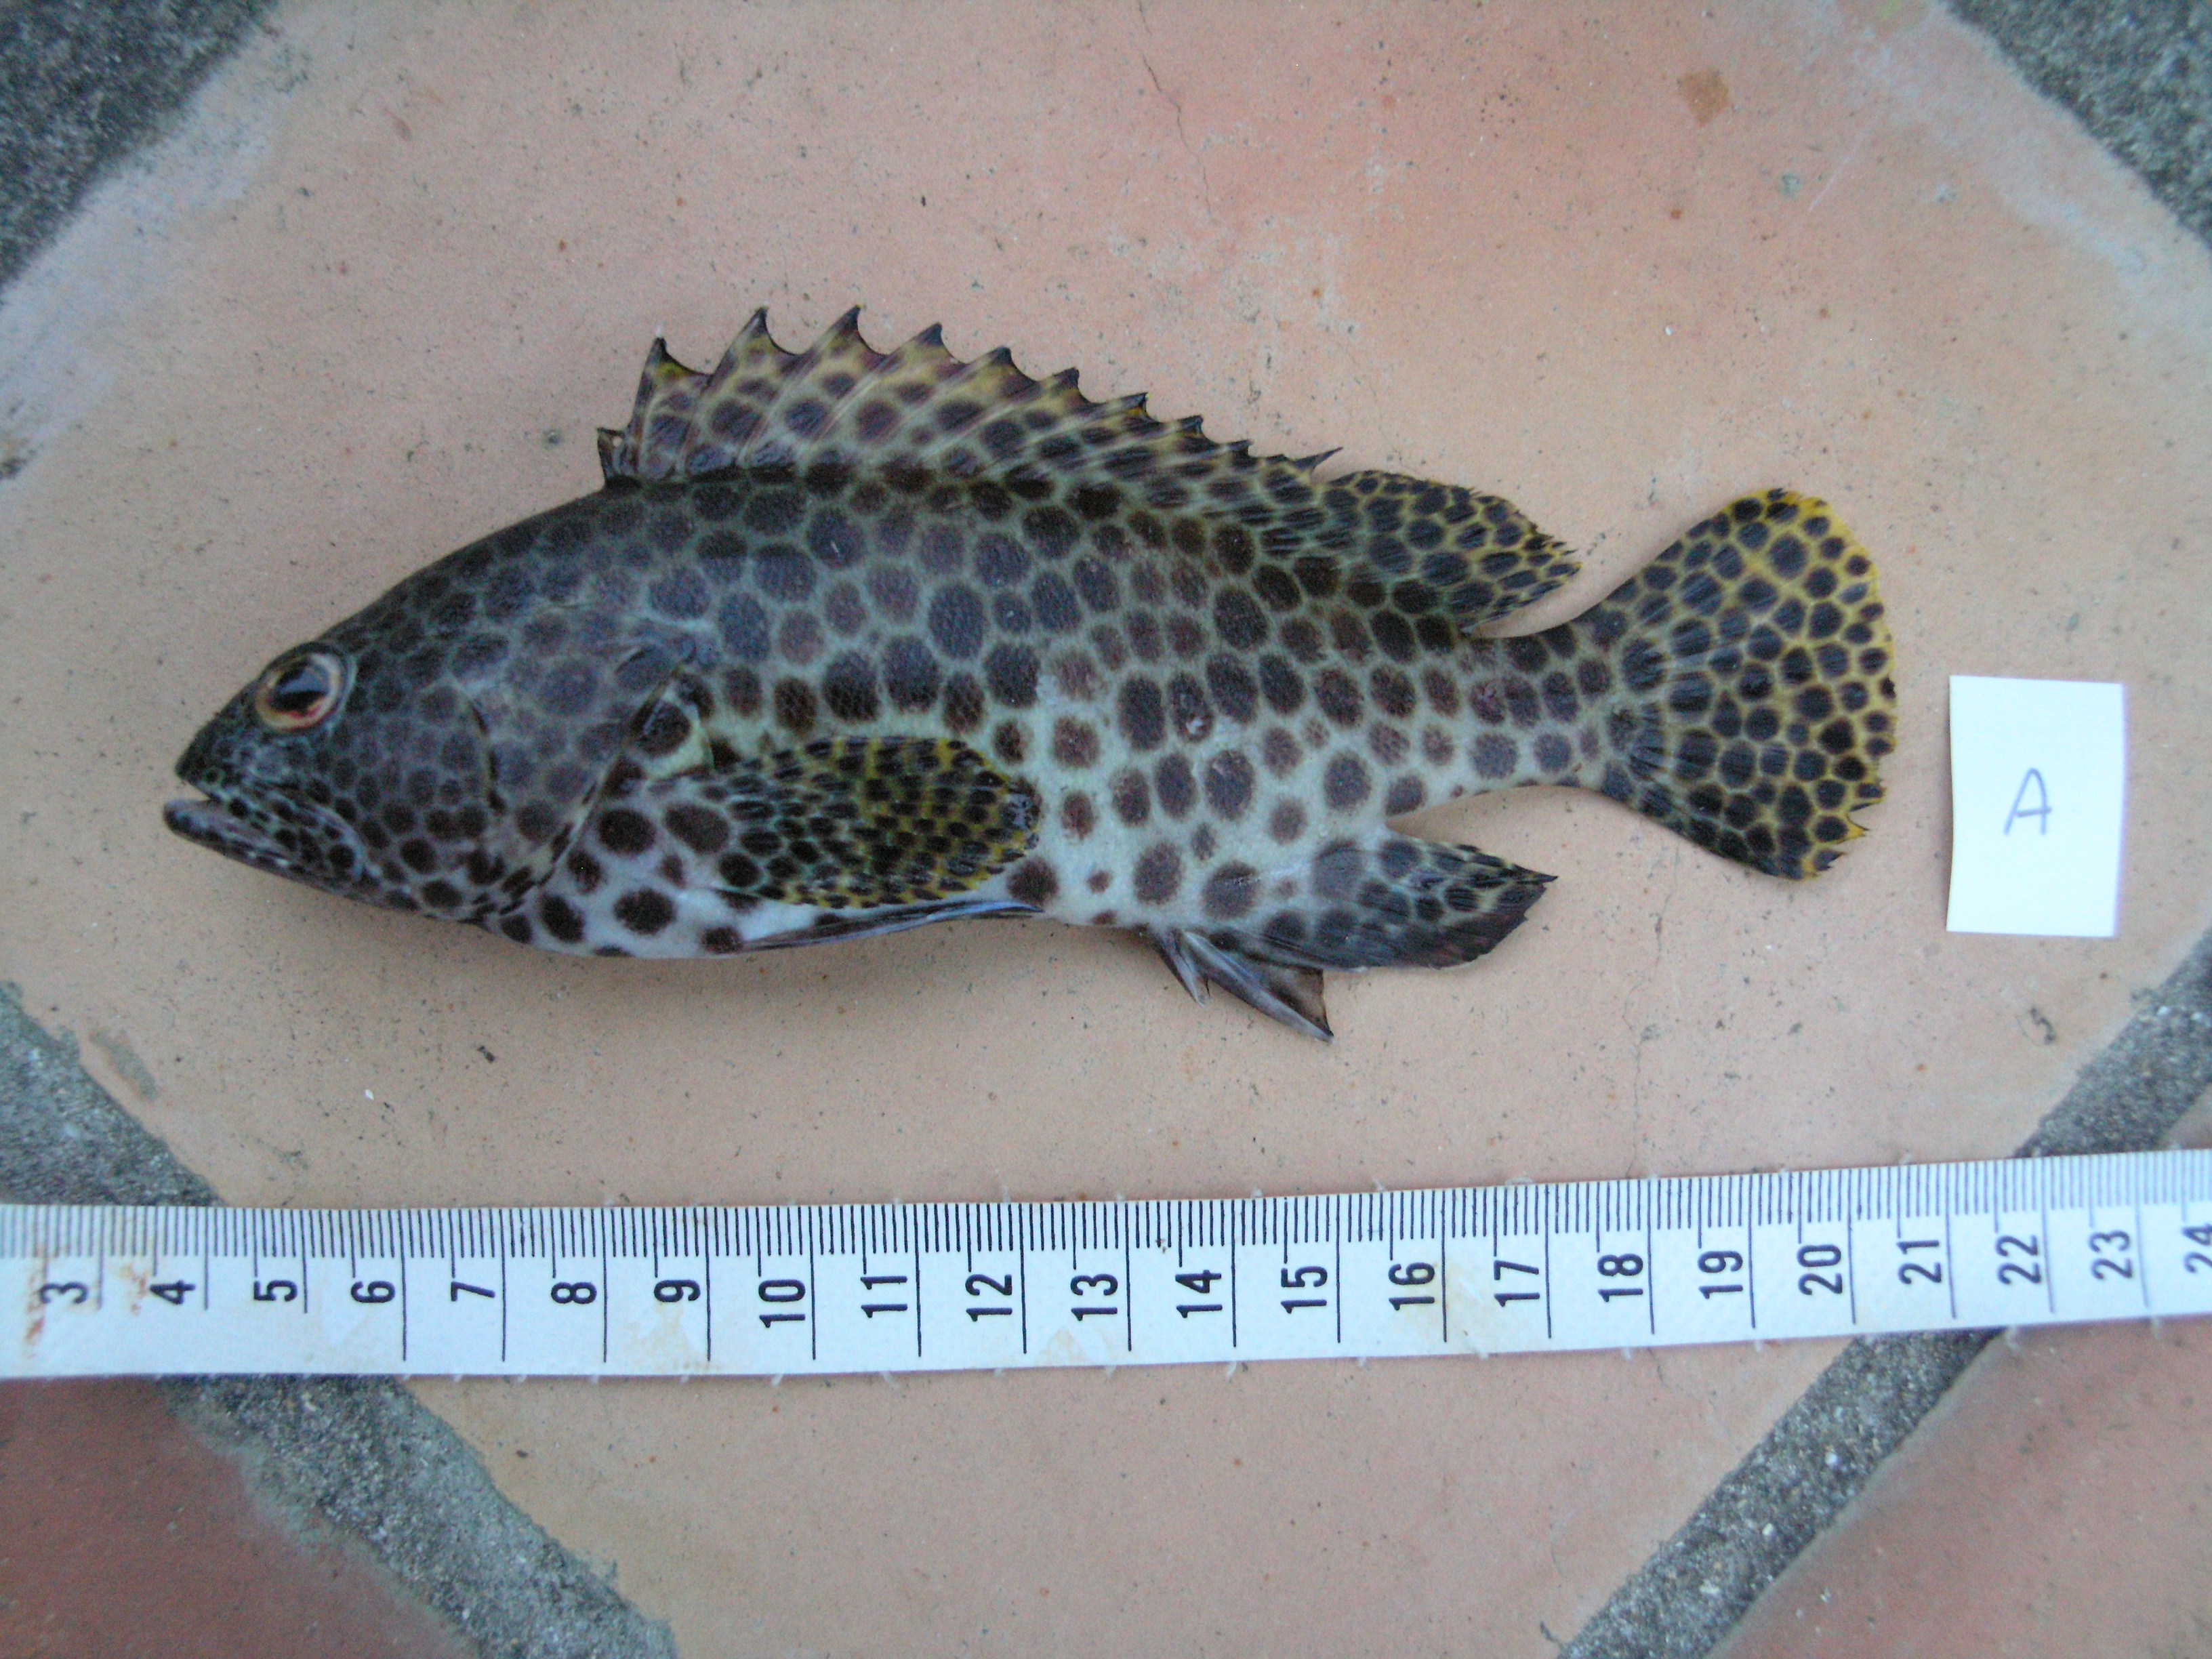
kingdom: Animalia
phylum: Chordata
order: Perciformes
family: Serranidae
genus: Epinephelus
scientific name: Epinephelus macrospilos
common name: Snubnose grouper
